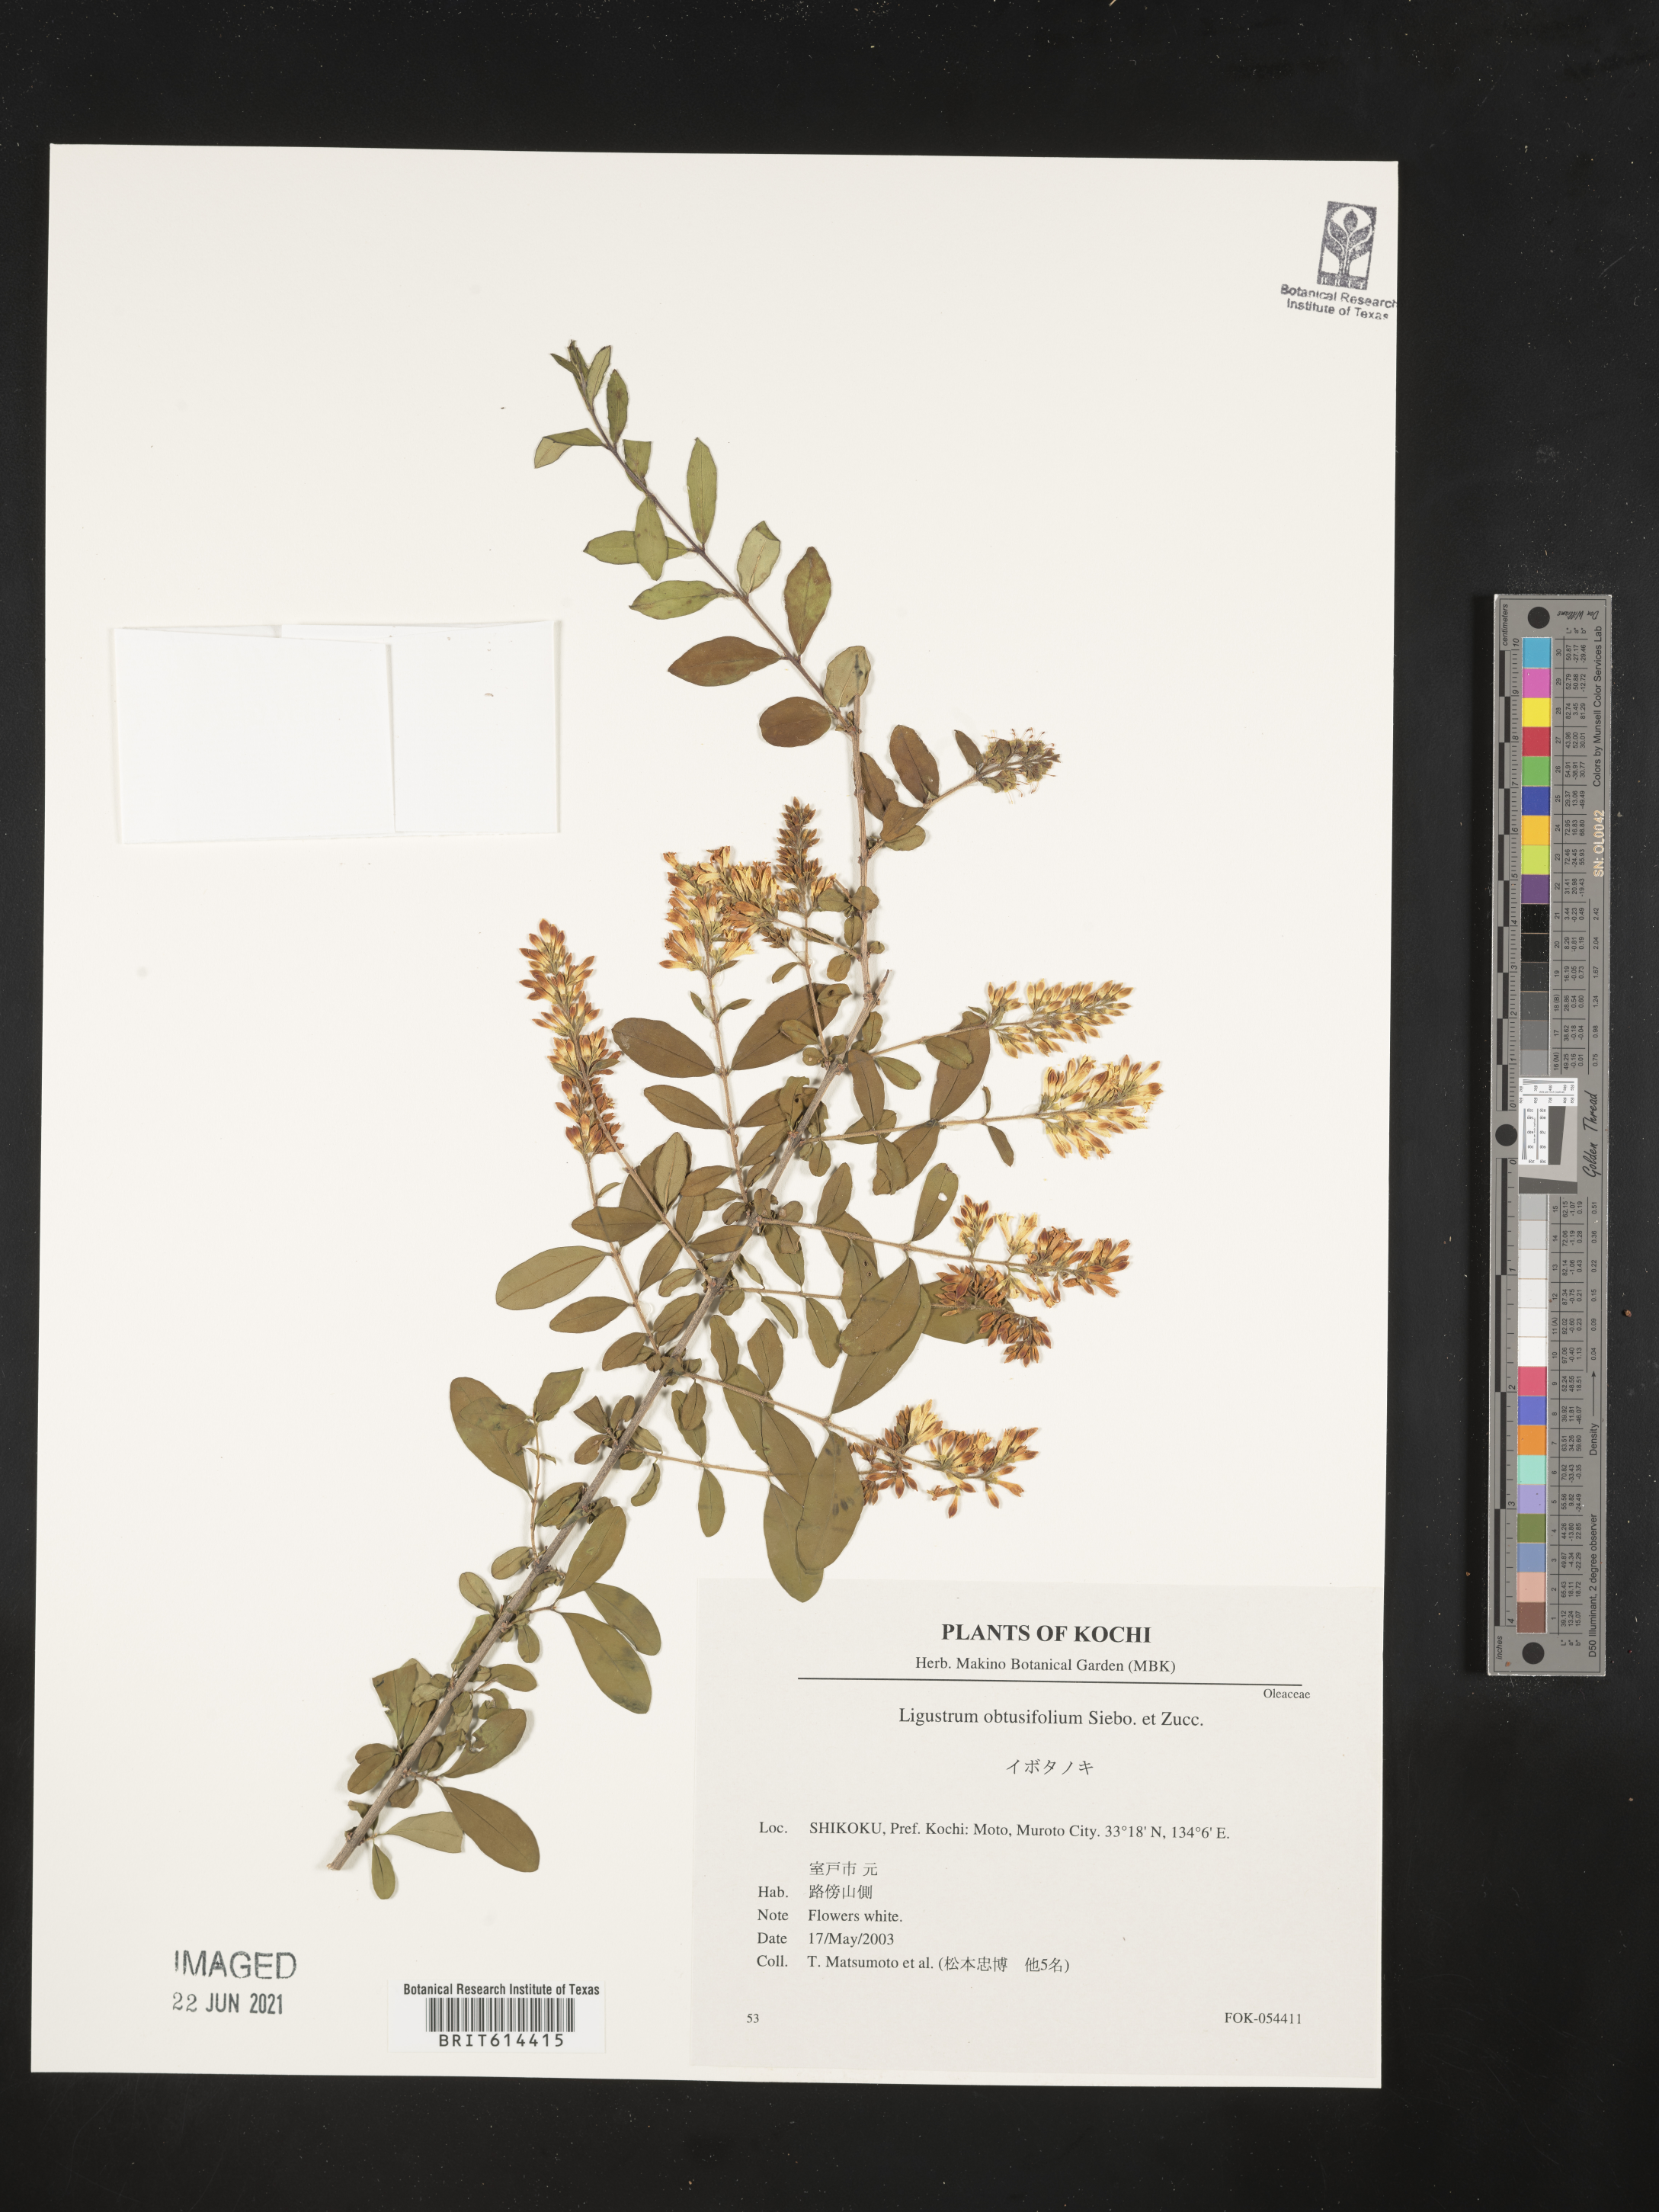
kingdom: Plantae
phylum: Tracheophyta
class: Magnoliopsida
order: Lamiales
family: Oleaceae
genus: Ligustrum
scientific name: Ligustrum obtusifolium
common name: Border privet
